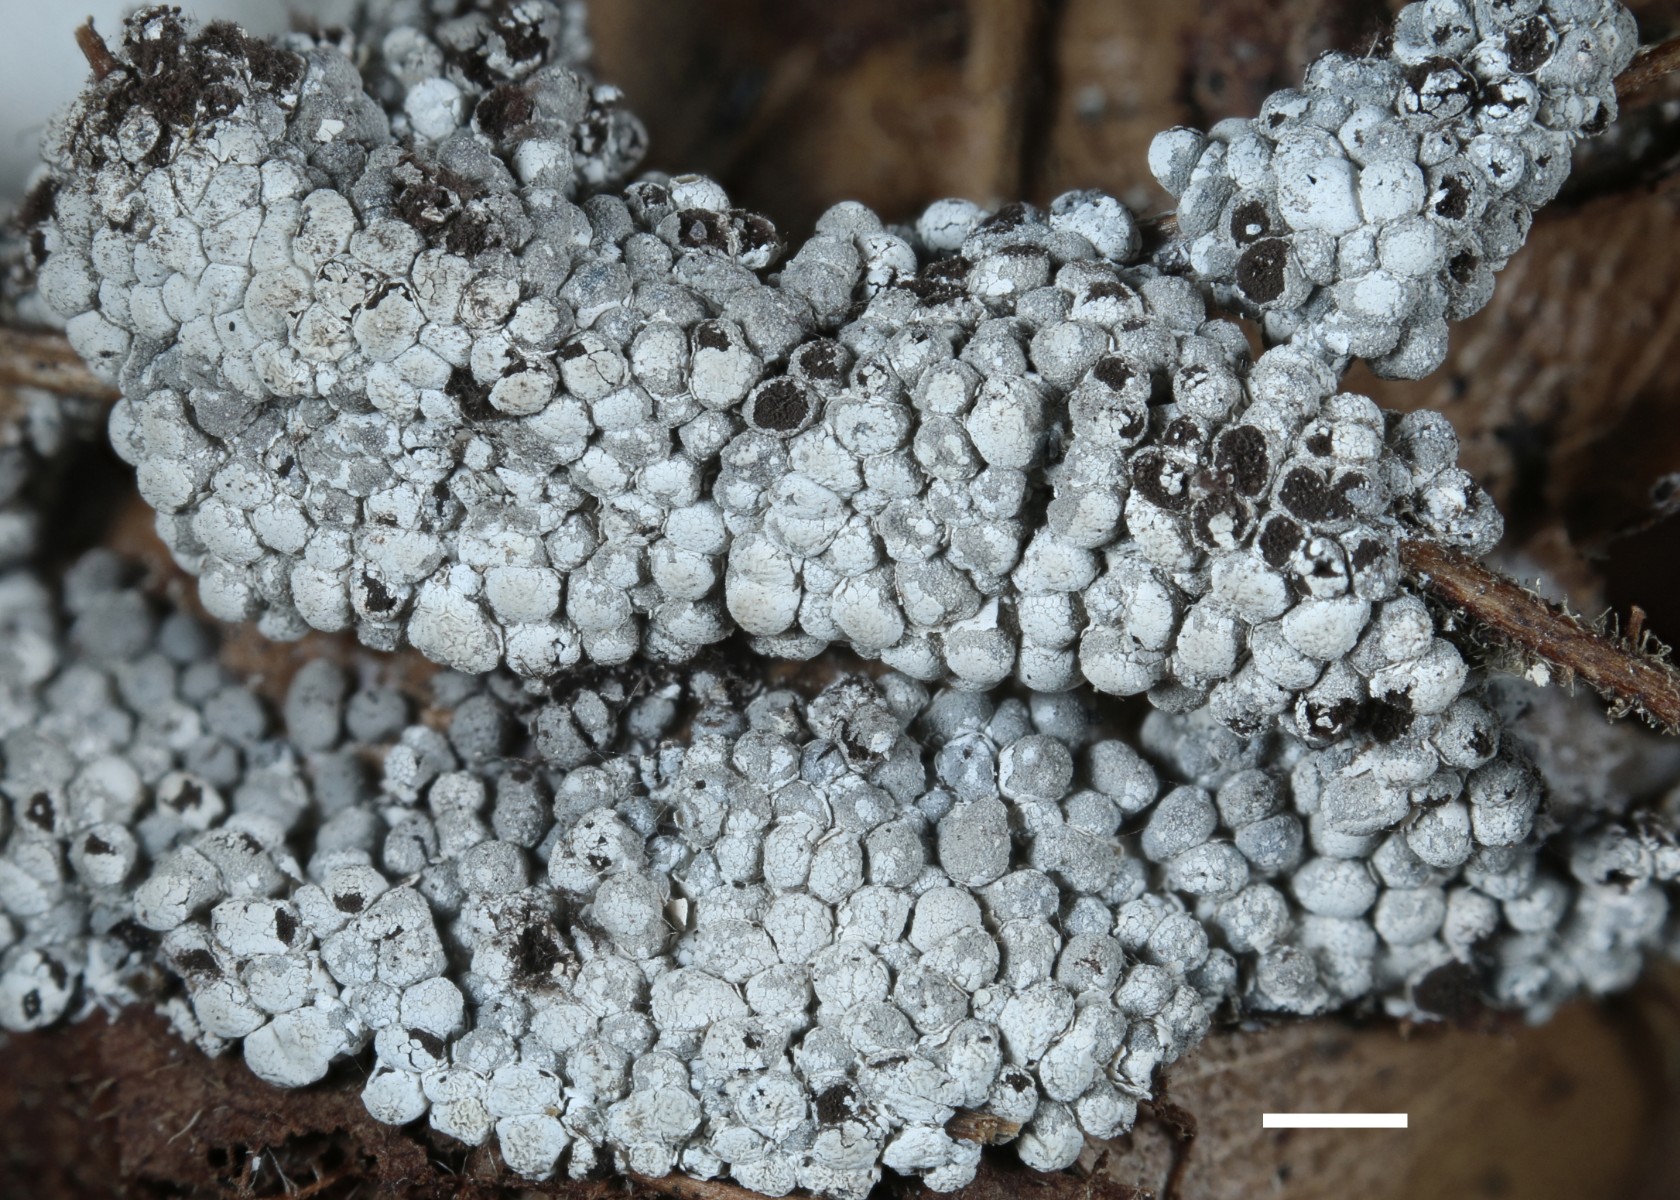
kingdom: Protozoa
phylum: Mycetozoa
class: Myxomycetes
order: Physarales
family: Didymiaceae
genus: Diderma
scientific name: Diderma spumarioides
